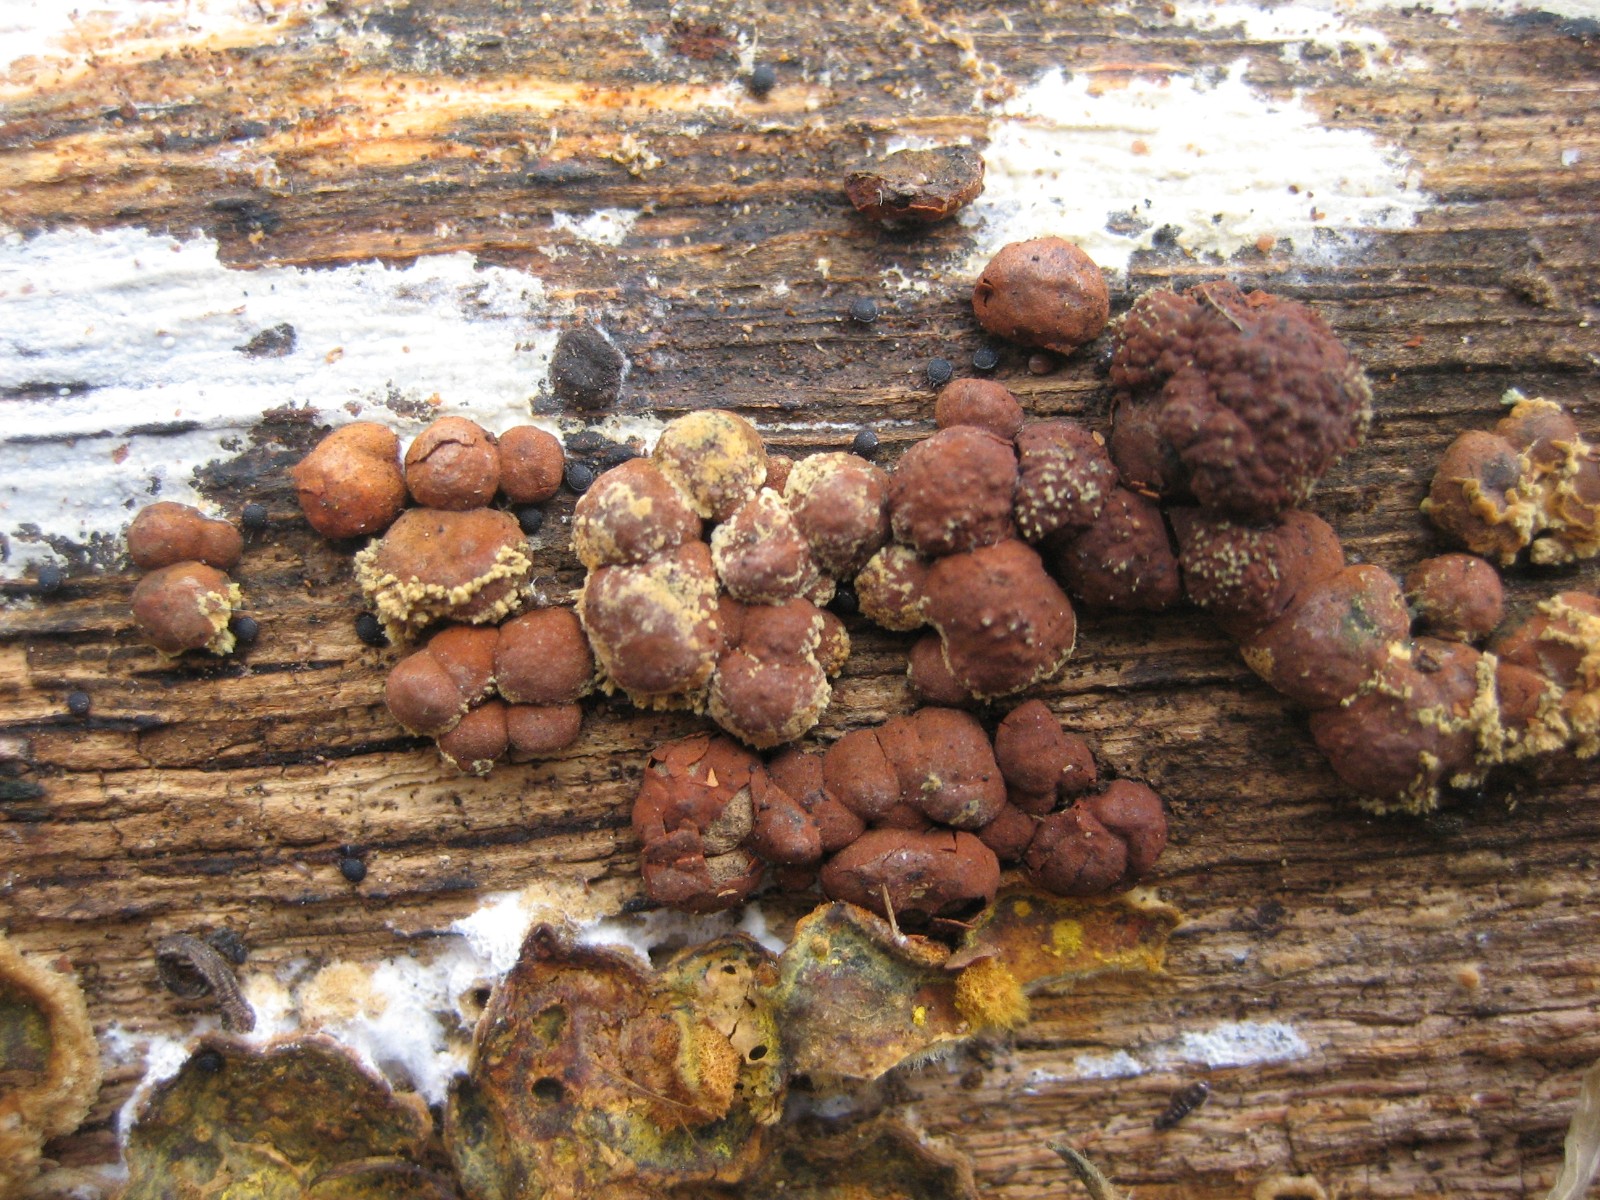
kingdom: Fungi
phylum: Ascomycota
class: Sordariomycetes
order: Xylariales
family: Hypoxylaceae
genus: Hypoxylon
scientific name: Hypoxylon howeanum
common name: halvkugleformet kulbær
